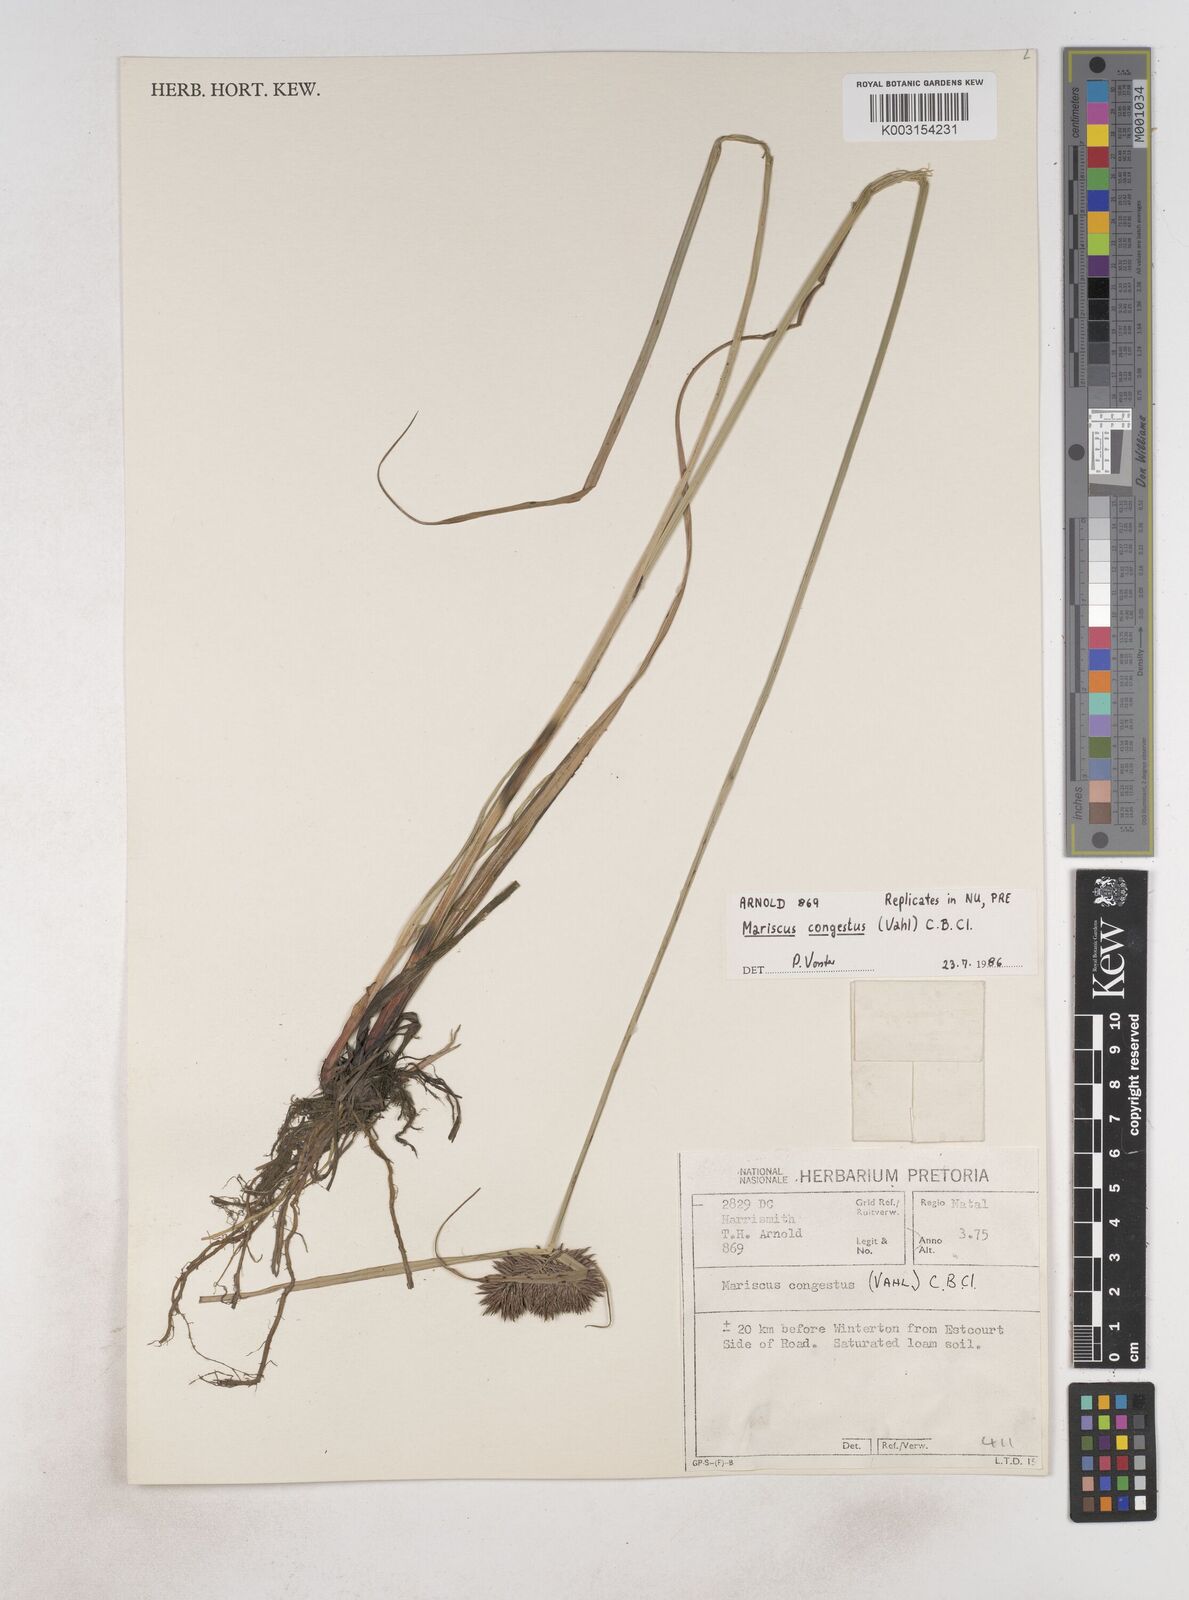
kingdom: Plantae
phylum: Tracheophyta
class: Liliopsida
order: Poales
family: Cyperaceae
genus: Cyperus
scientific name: Cyperus congestus
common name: Dense flat sedge
